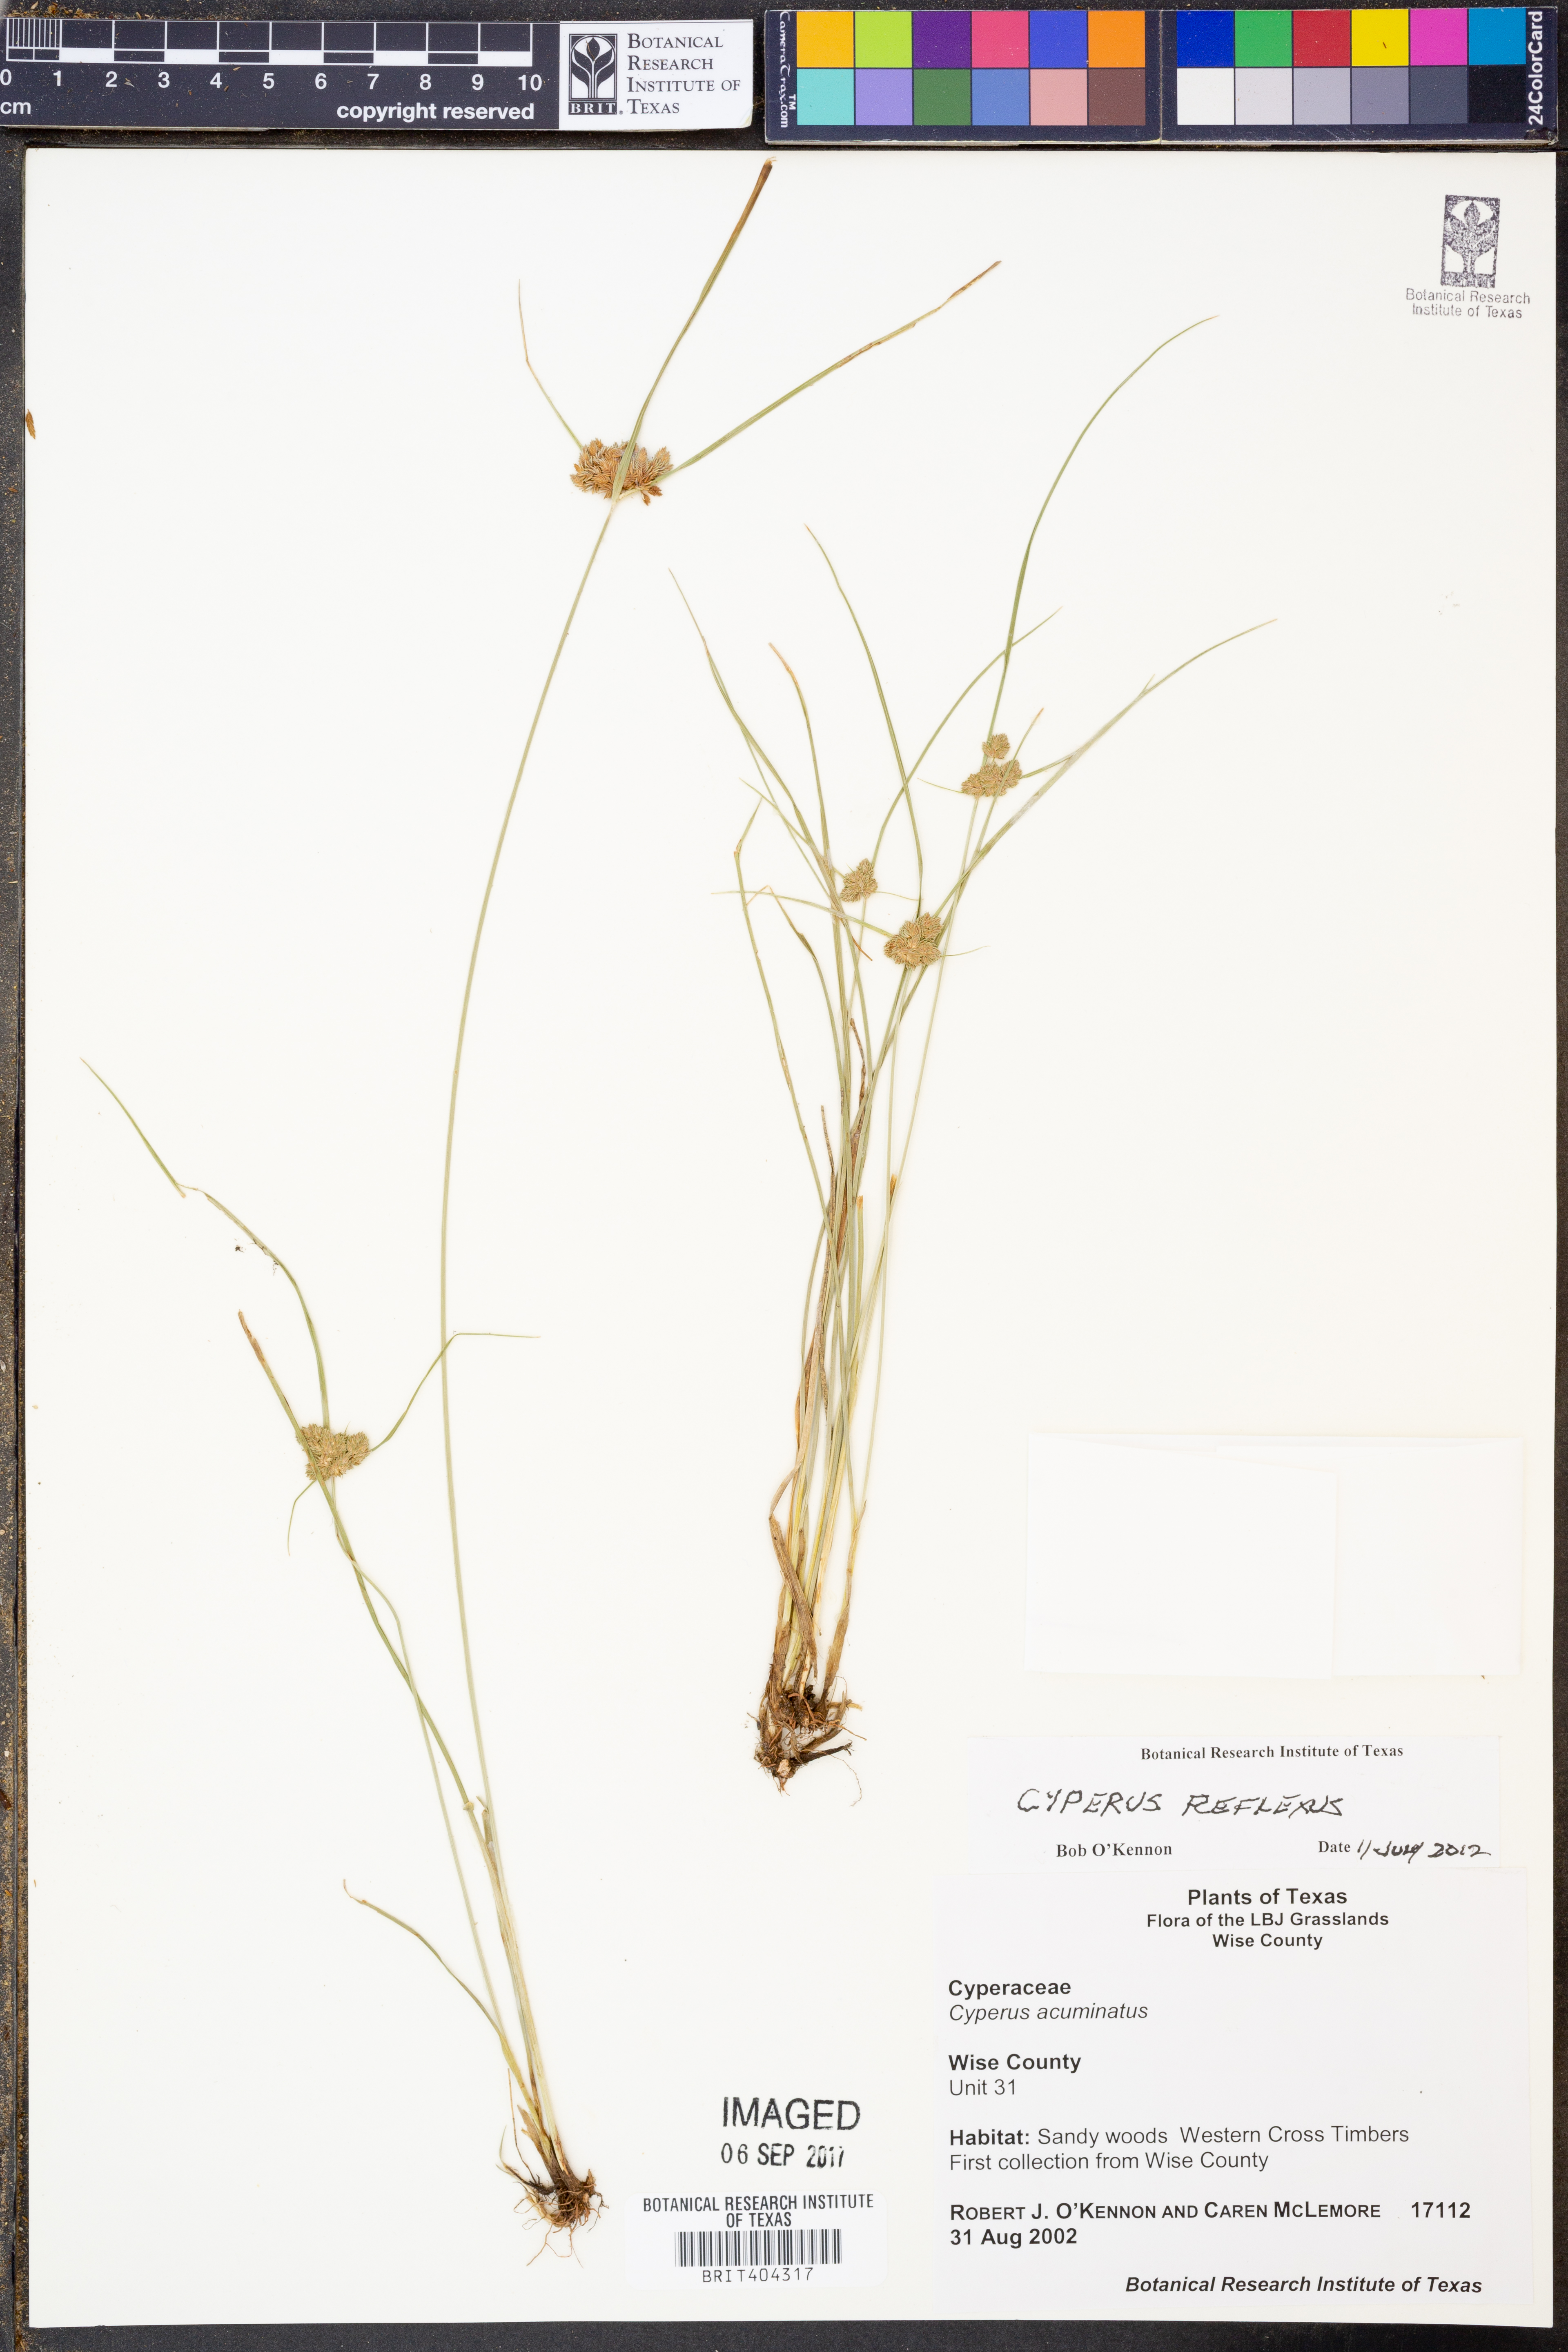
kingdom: Plantae
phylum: Tracheophyta
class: Liliopsida
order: Poales
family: Cyperaceae
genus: Cyperus
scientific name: Cyperus reflexus
